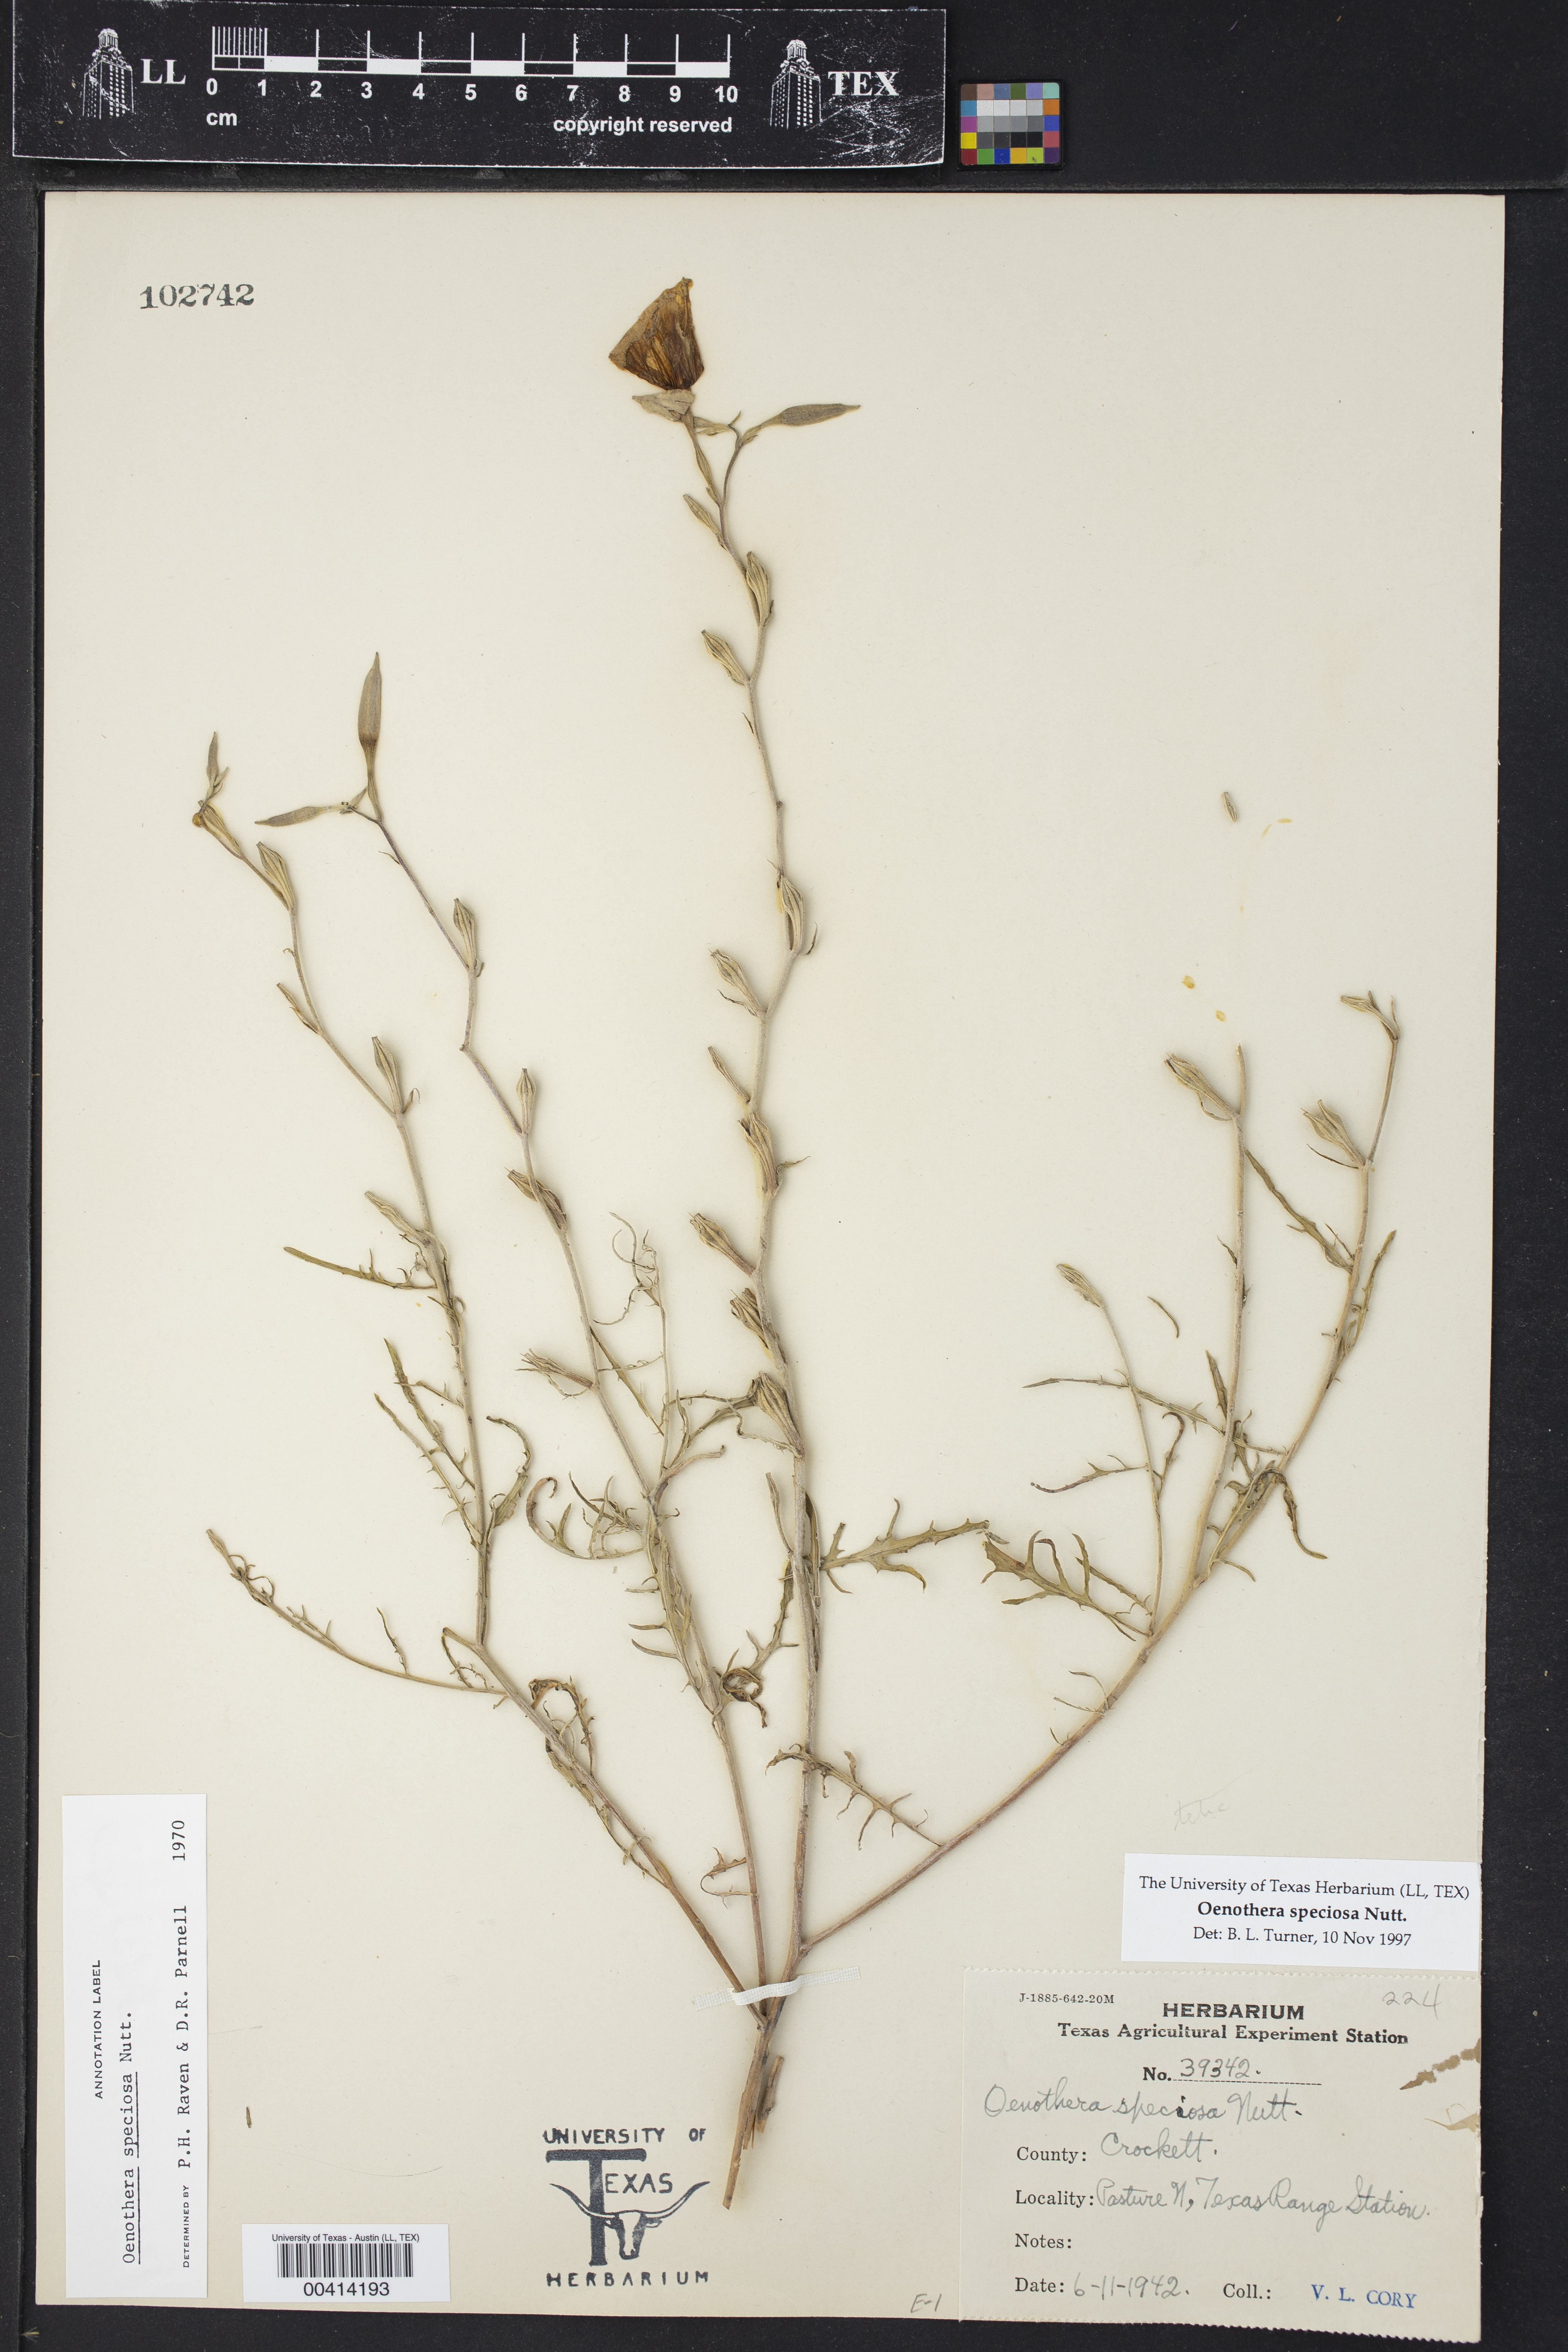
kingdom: Plantae
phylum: Tracheophyta
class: Magnoliopsida
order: Myrtales
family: Onagraceae
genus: Oenothera
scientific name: Oenothera speciosa
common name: White evening-primrose
